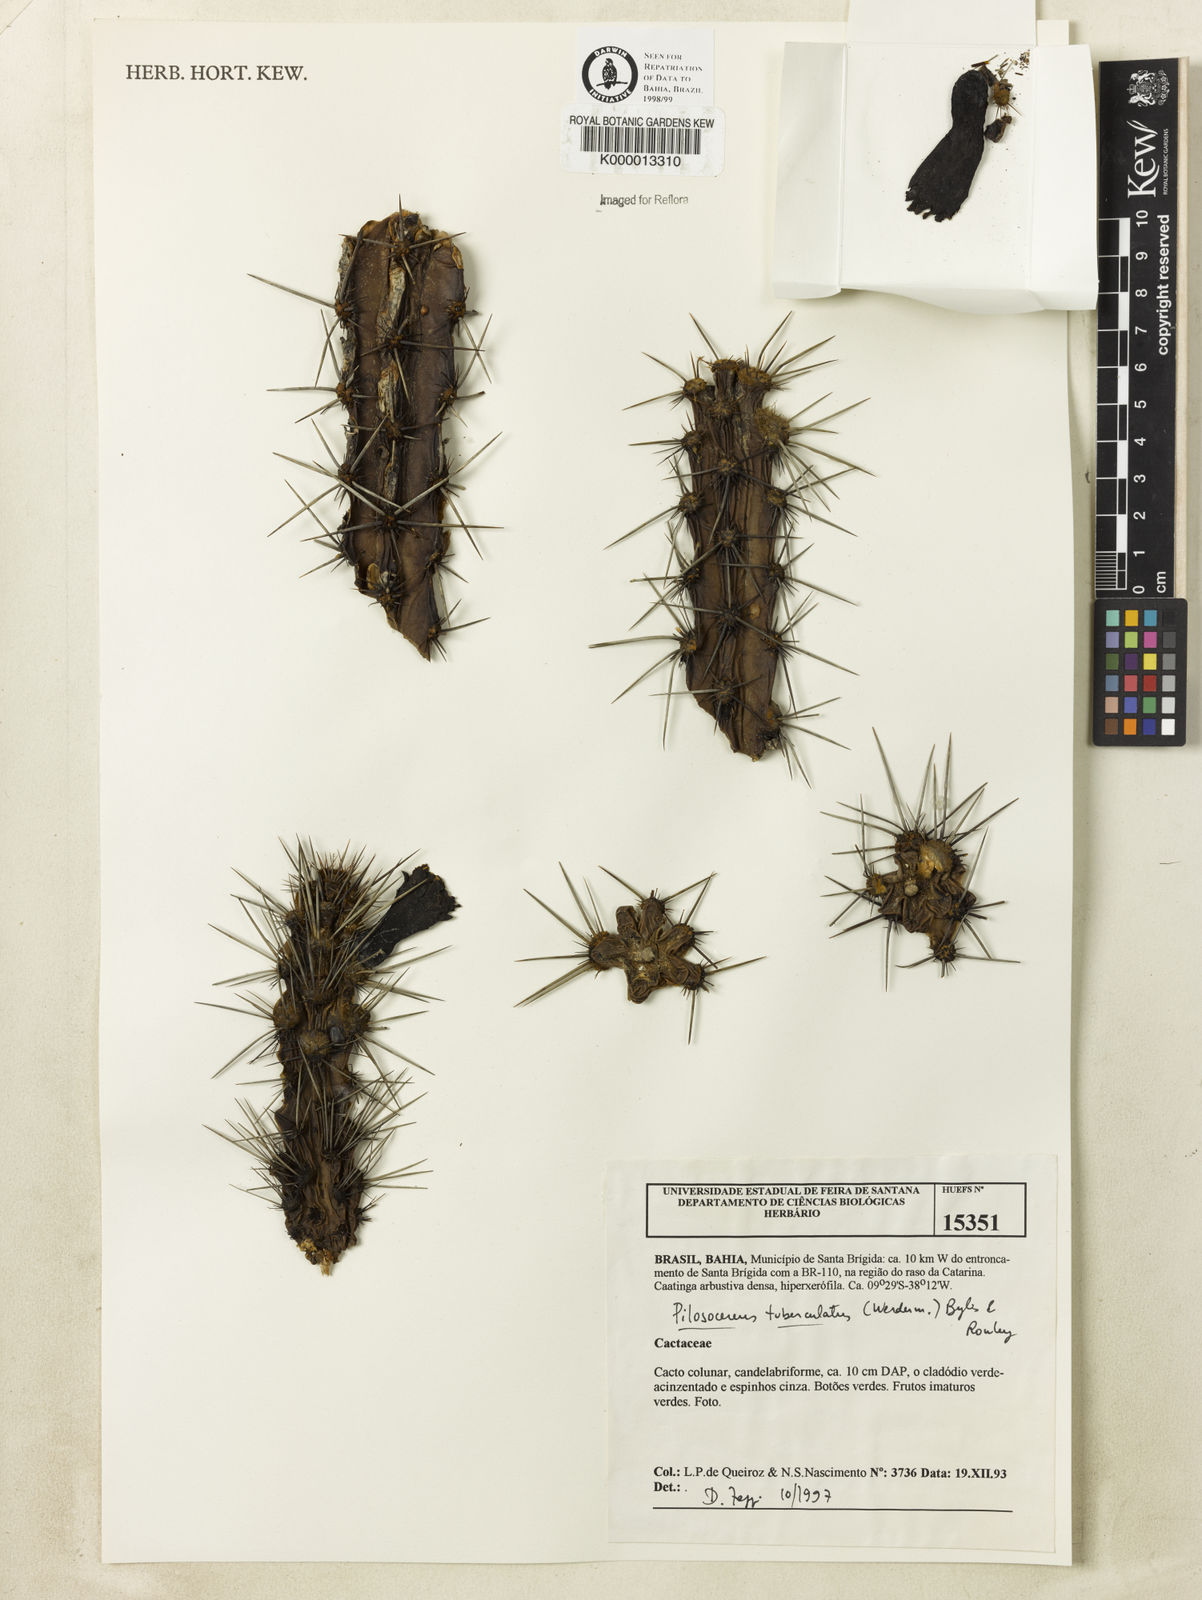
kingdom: Plantae
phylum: Tracheophyta
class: Magnoliopsida
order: Caryophyllales
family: Cactaceae
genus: Xiquexique
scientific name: Xiquexique tuberculatus
